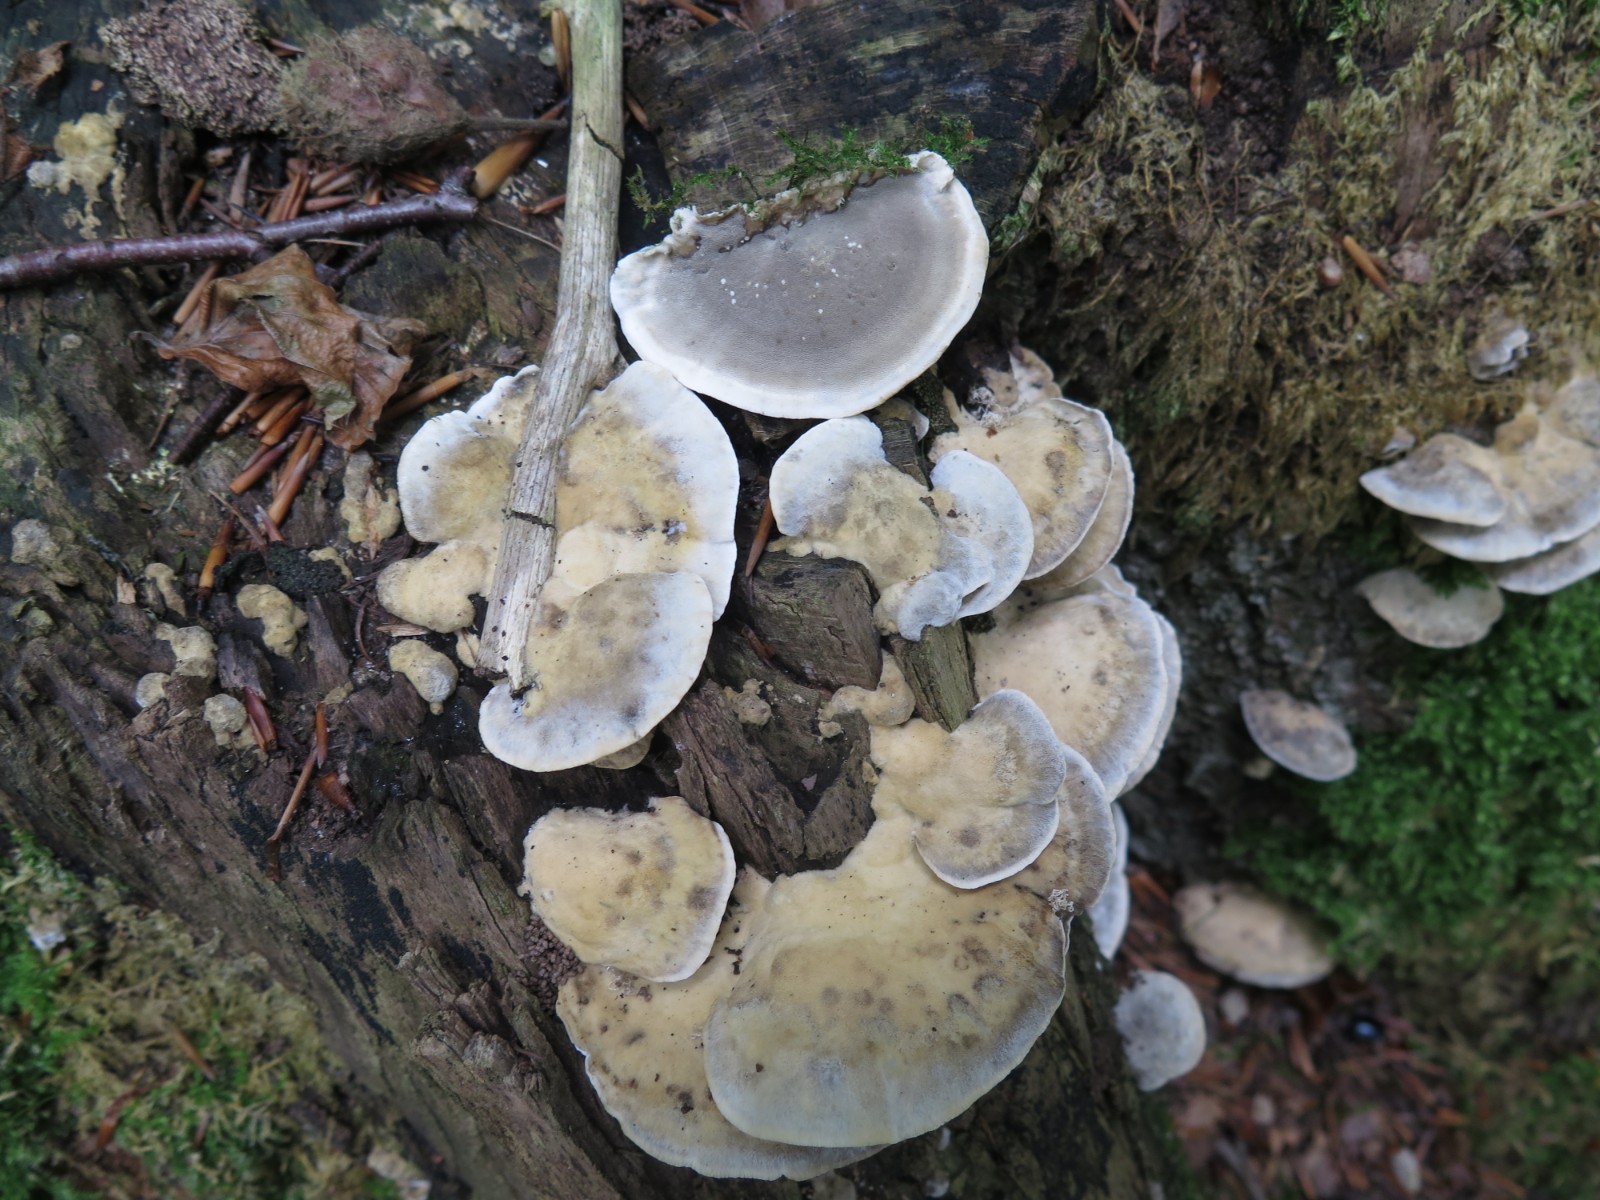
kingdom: Fungi
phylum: Basidiomycota
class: Agaricomycetes
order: Polyporales
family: Phanerochaetaceae
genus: Bjerkandera
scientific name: Bjerkandera adusta
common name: sveden sodporesvamp
